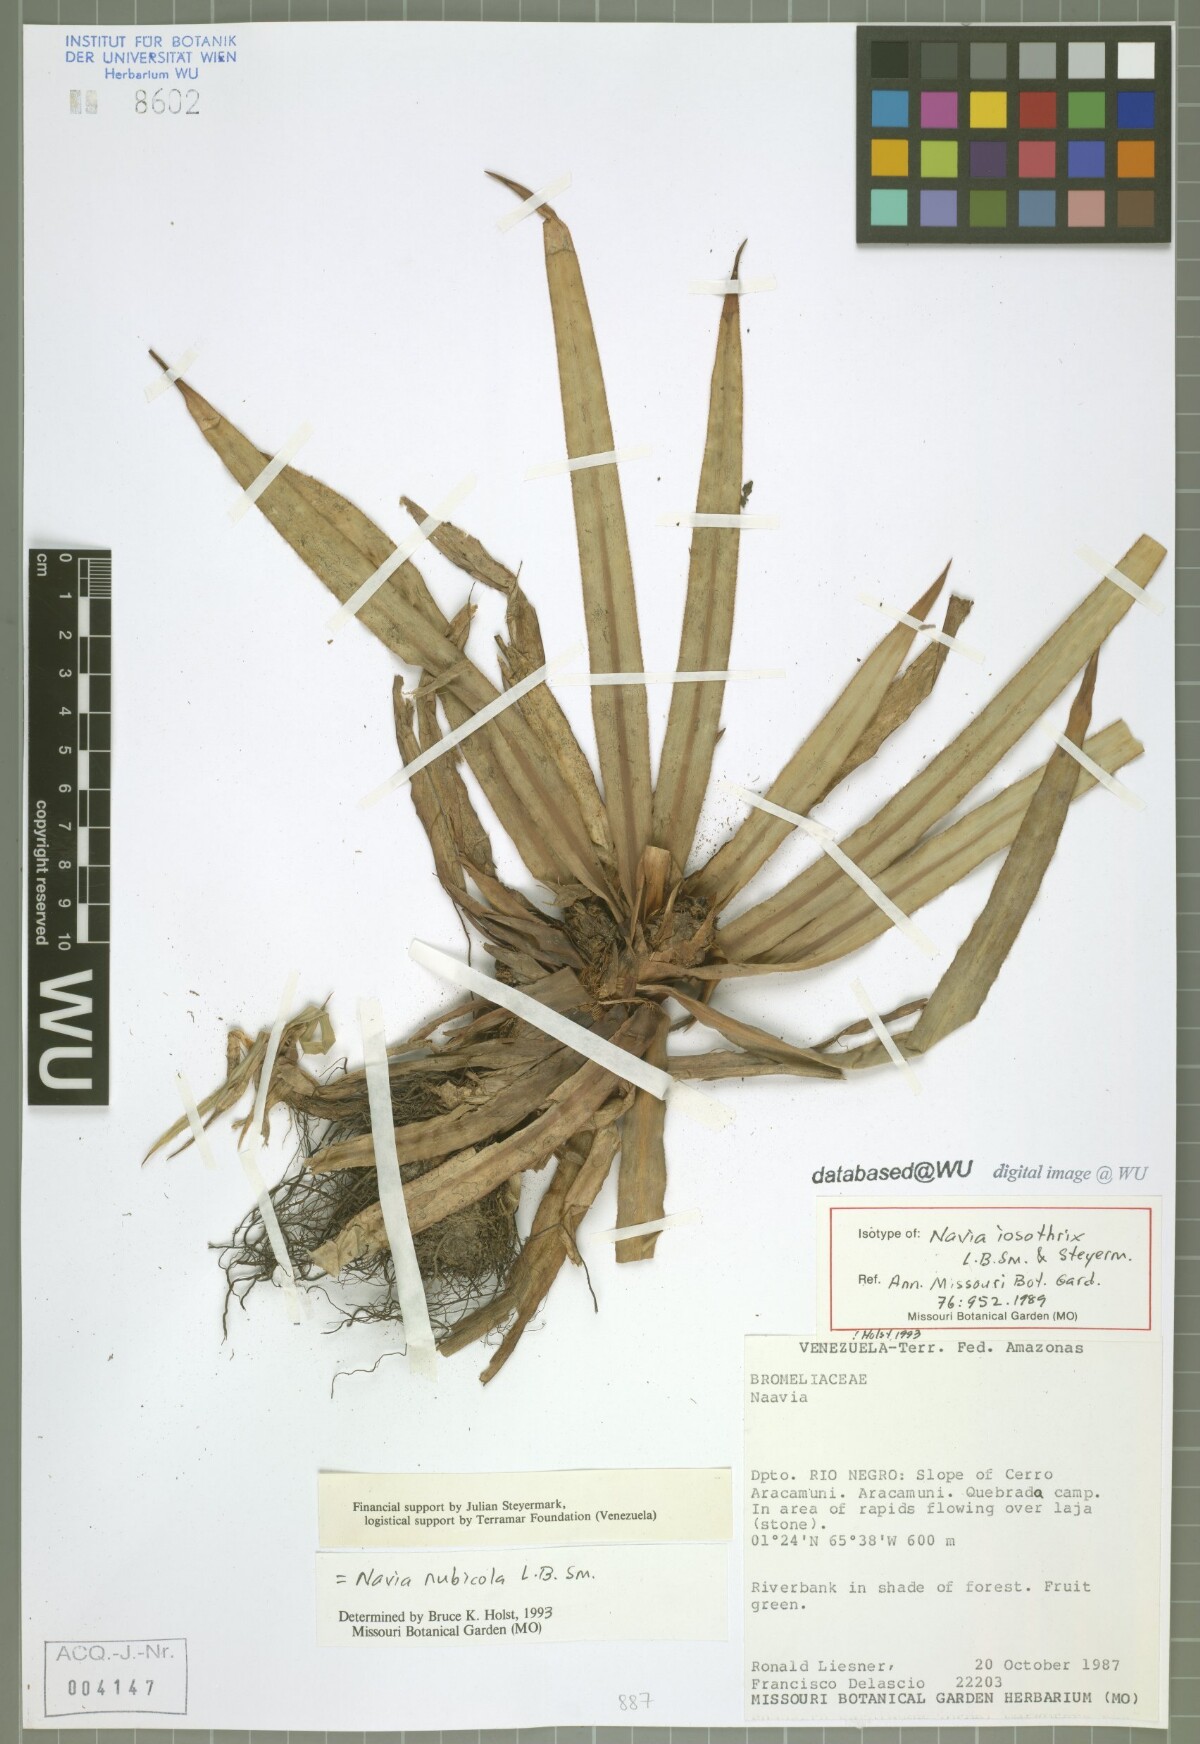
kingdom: Plantae
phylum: Tracheophyta
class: Liliopsida
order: Poales
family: Bromeliaceae
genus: Navia
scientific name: Navia nubicola
